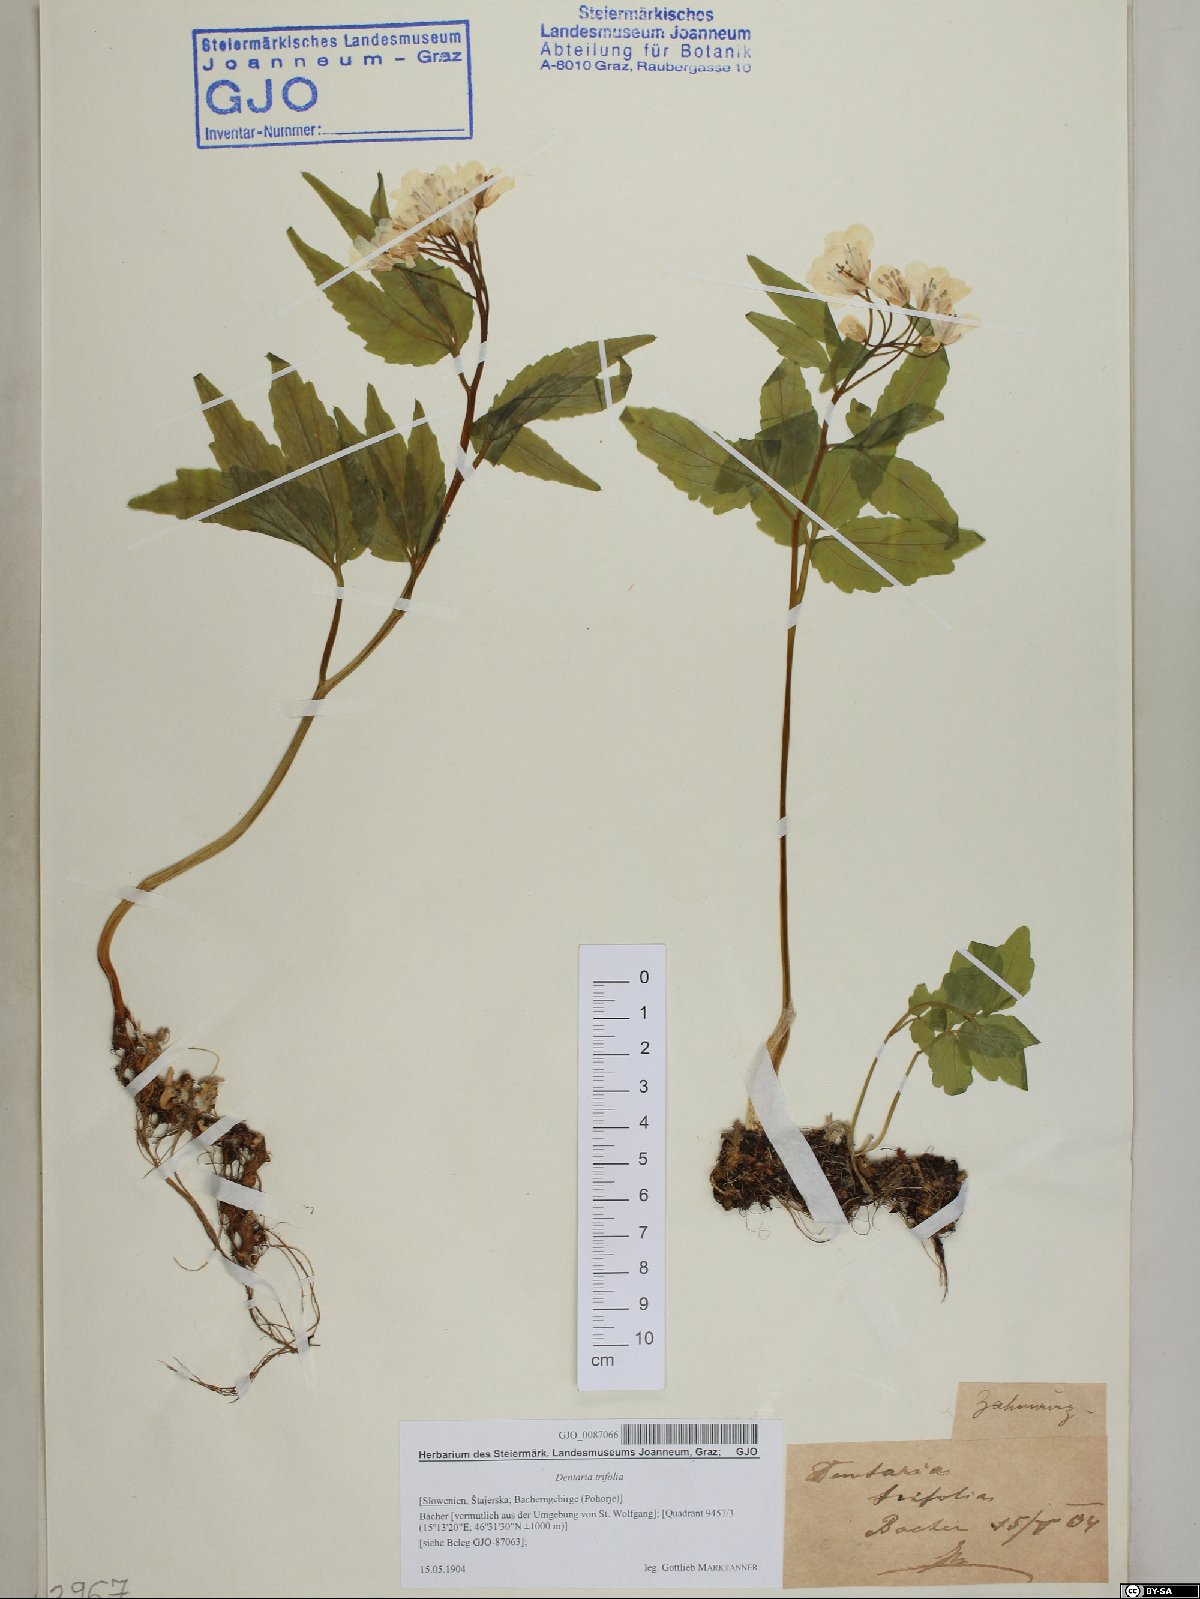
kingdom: Plantae
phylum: Tracheophyta
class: Magnoliopsida
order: Brassicales
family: Brassicaceae
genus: Cardamine
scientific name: Cardamine waldsteinii
